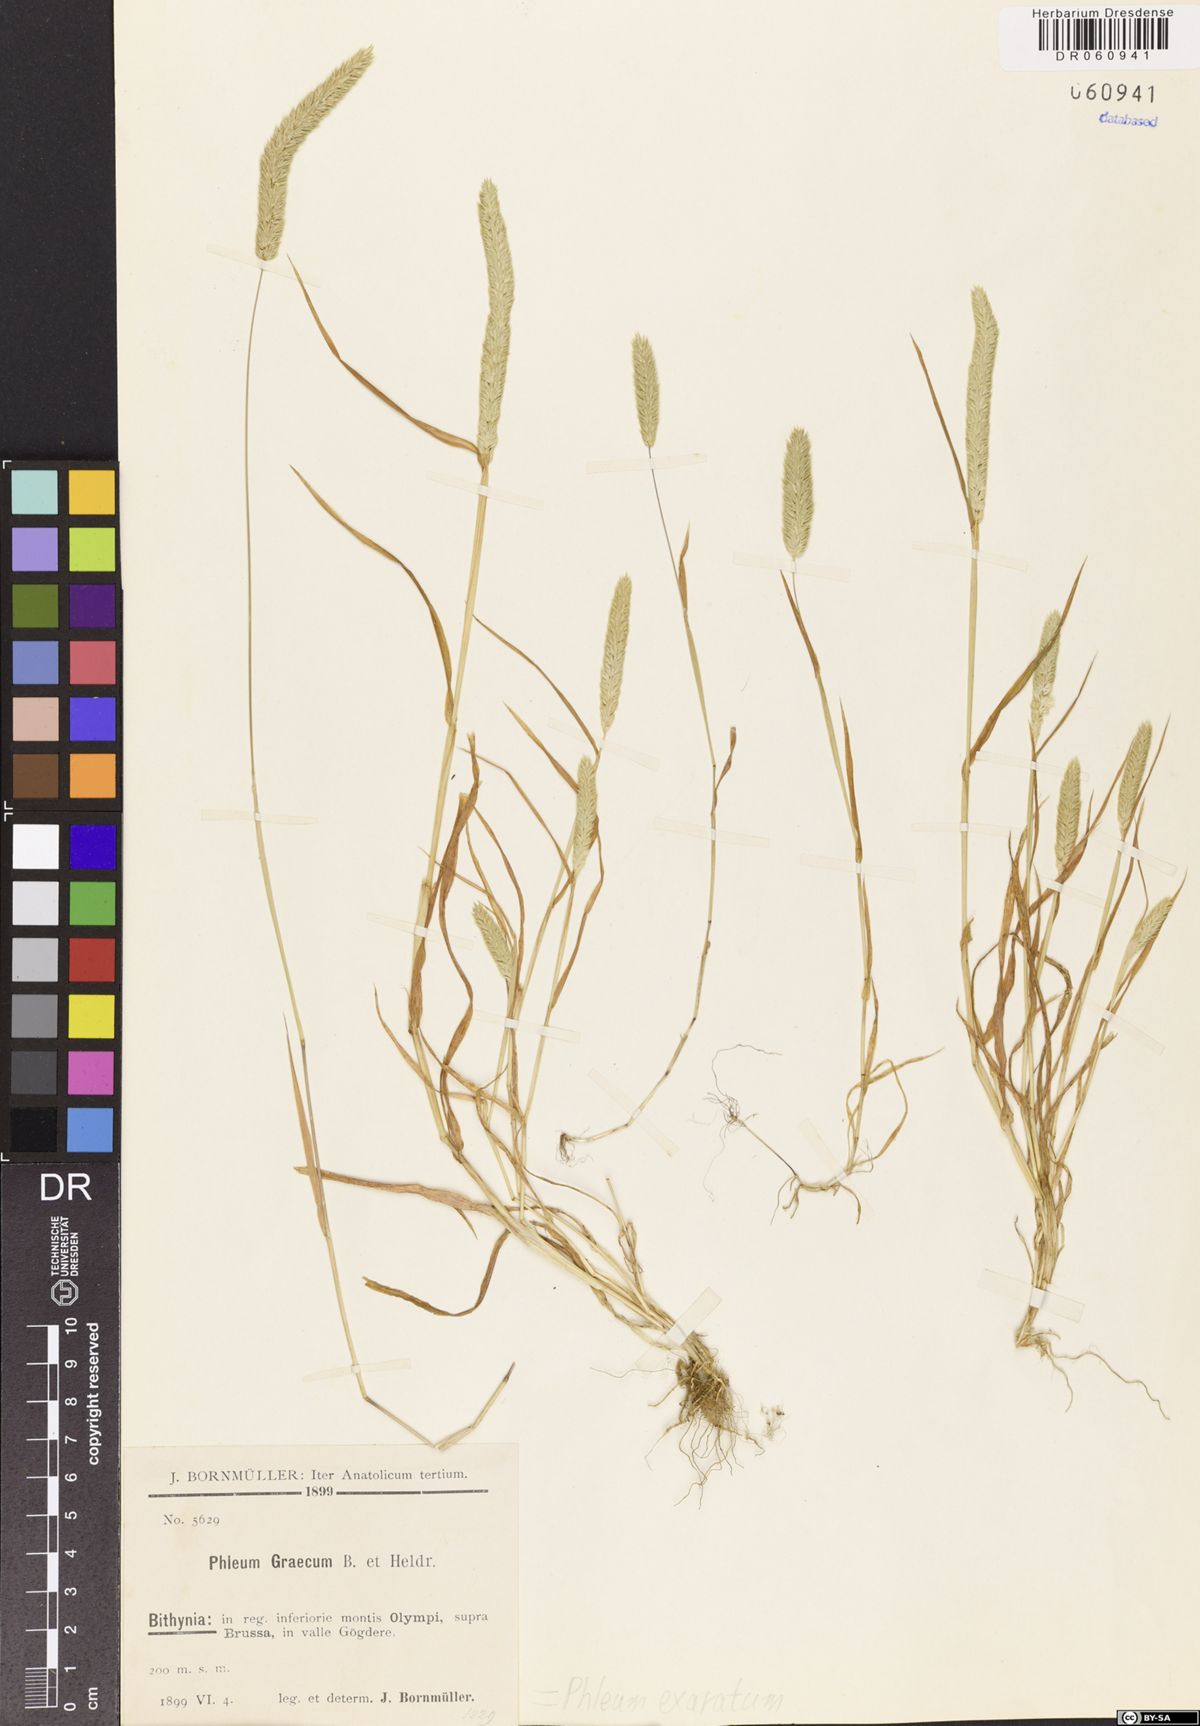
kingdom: Plantae
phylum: Tracheophyta
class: Liliopsida
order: Poales
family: Poaceae
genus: Phleum
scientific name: Phleum exaratum
